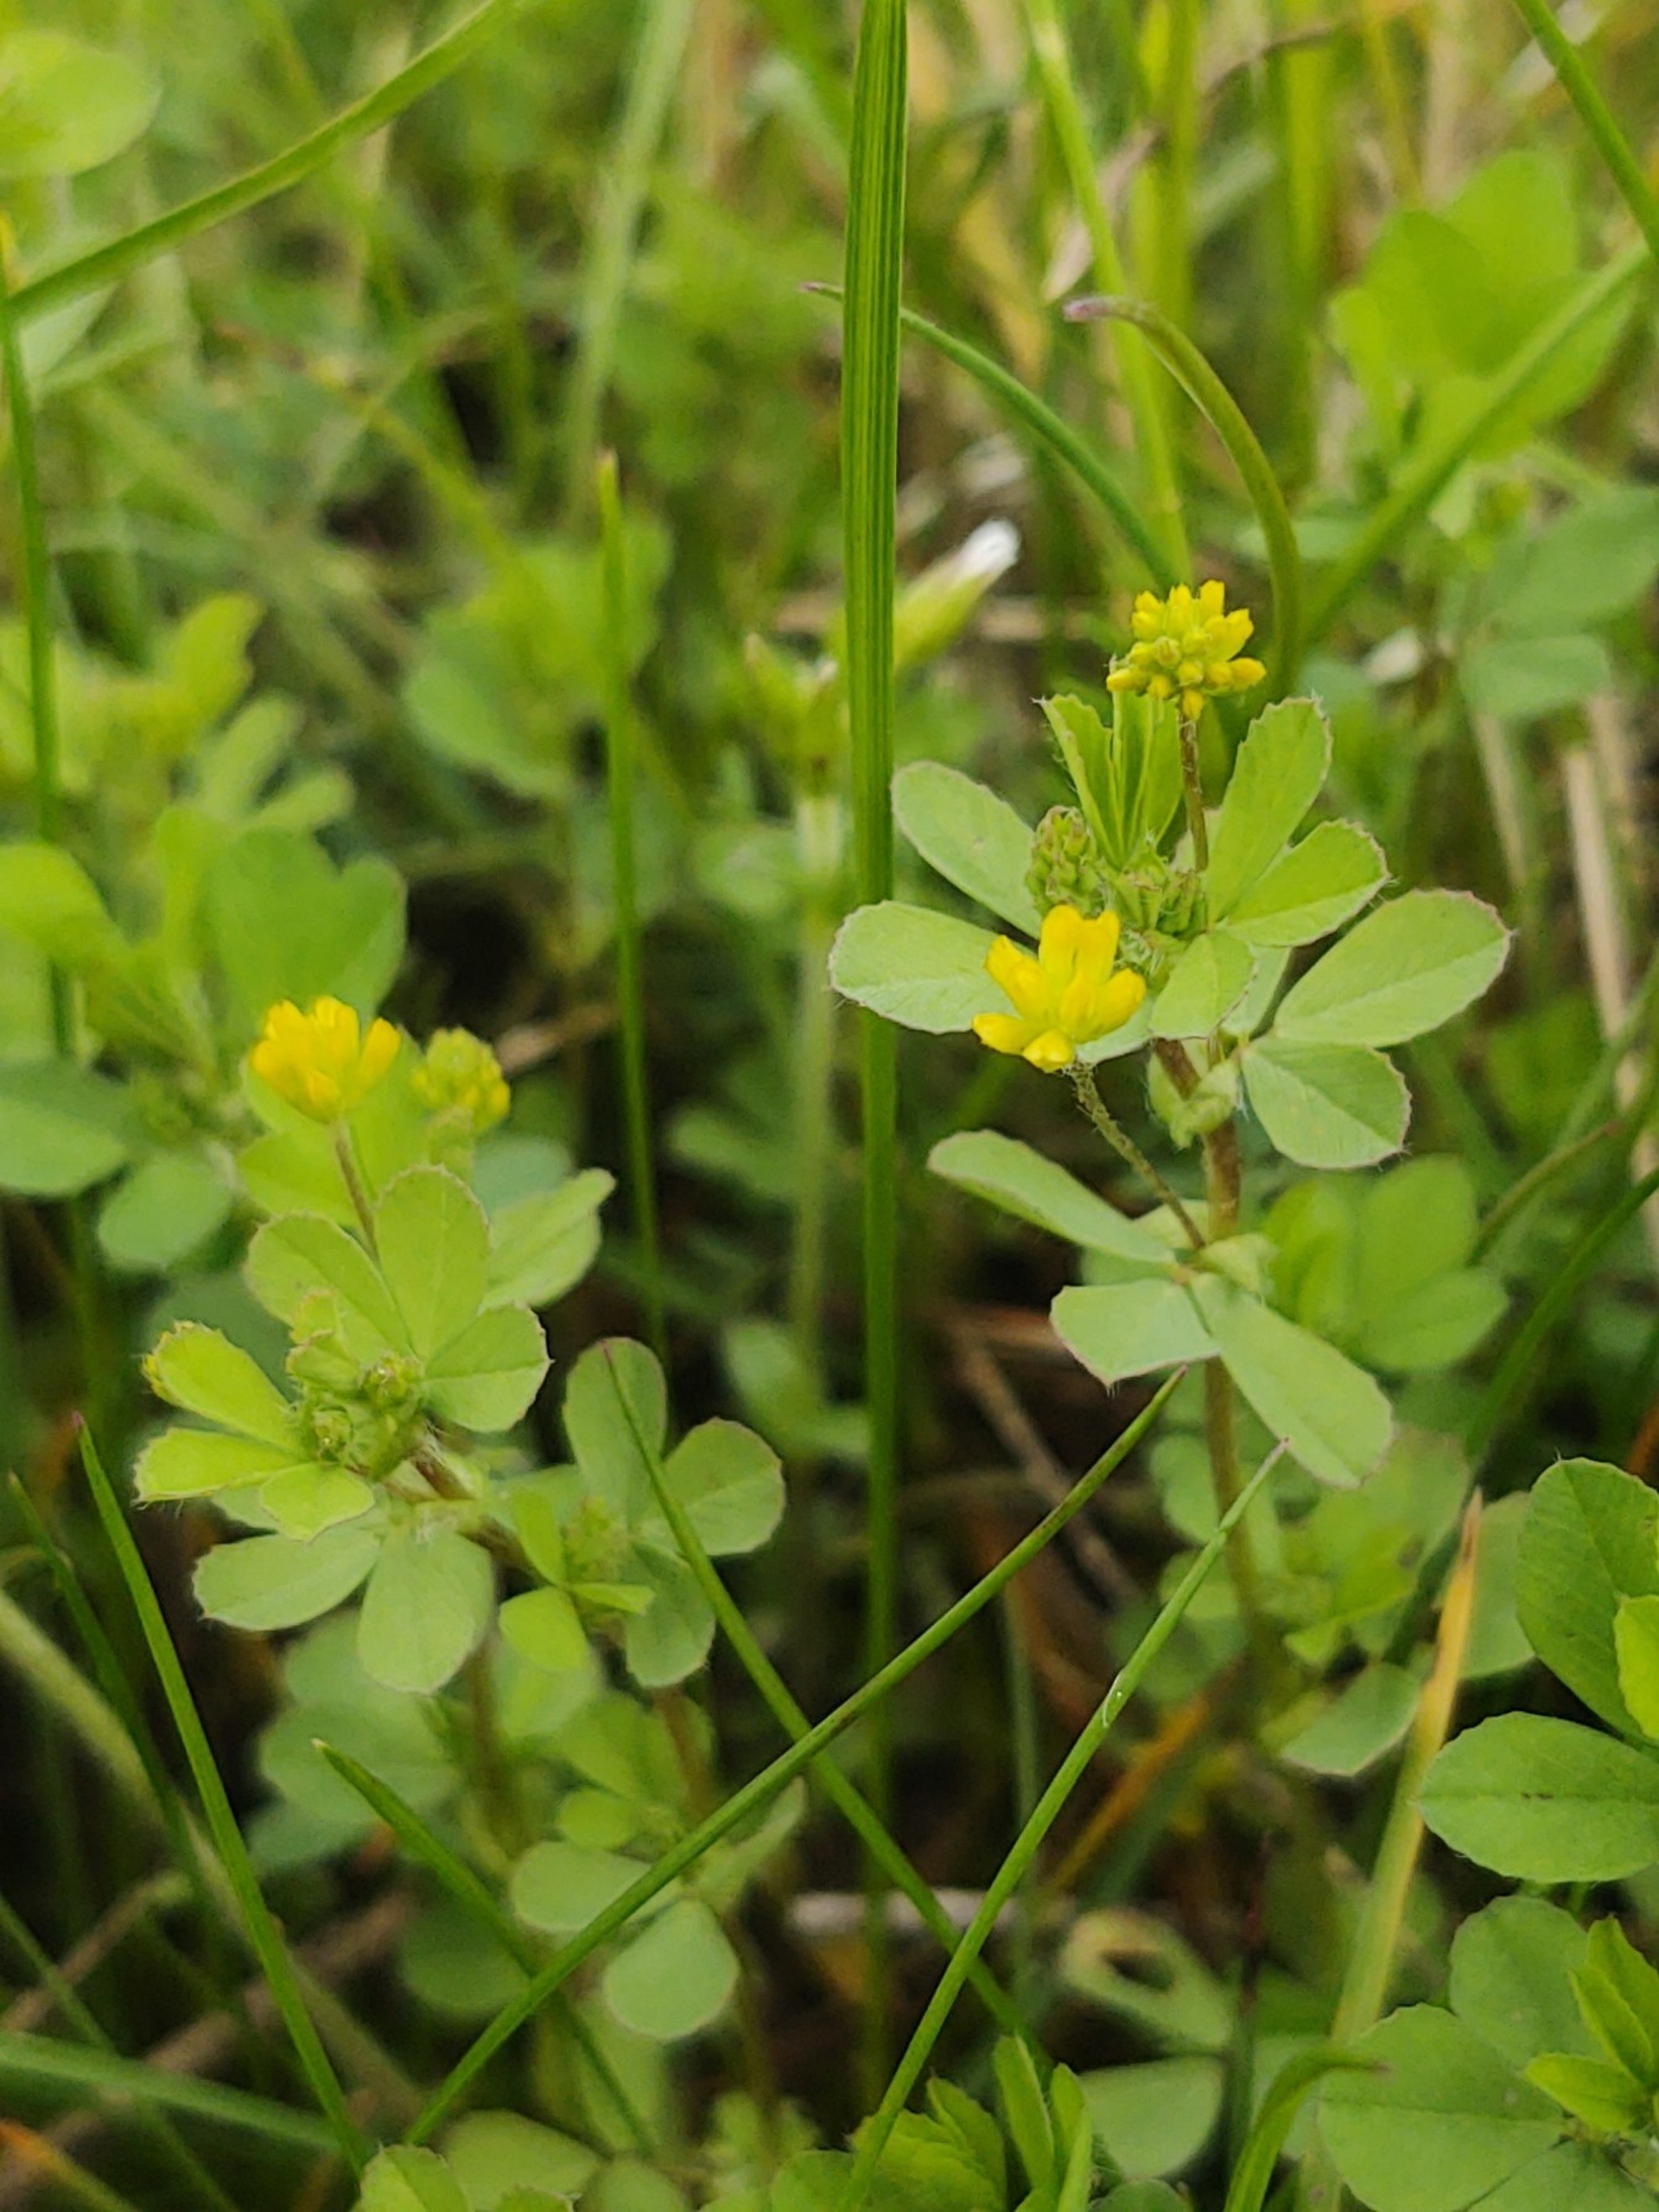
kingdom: Plantae
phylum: Tracheophyta
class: Magnoliopsida
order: Fabales
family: Fabaceae
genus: Trifolium
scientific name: Trifolium dubium
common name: Fin kløver
